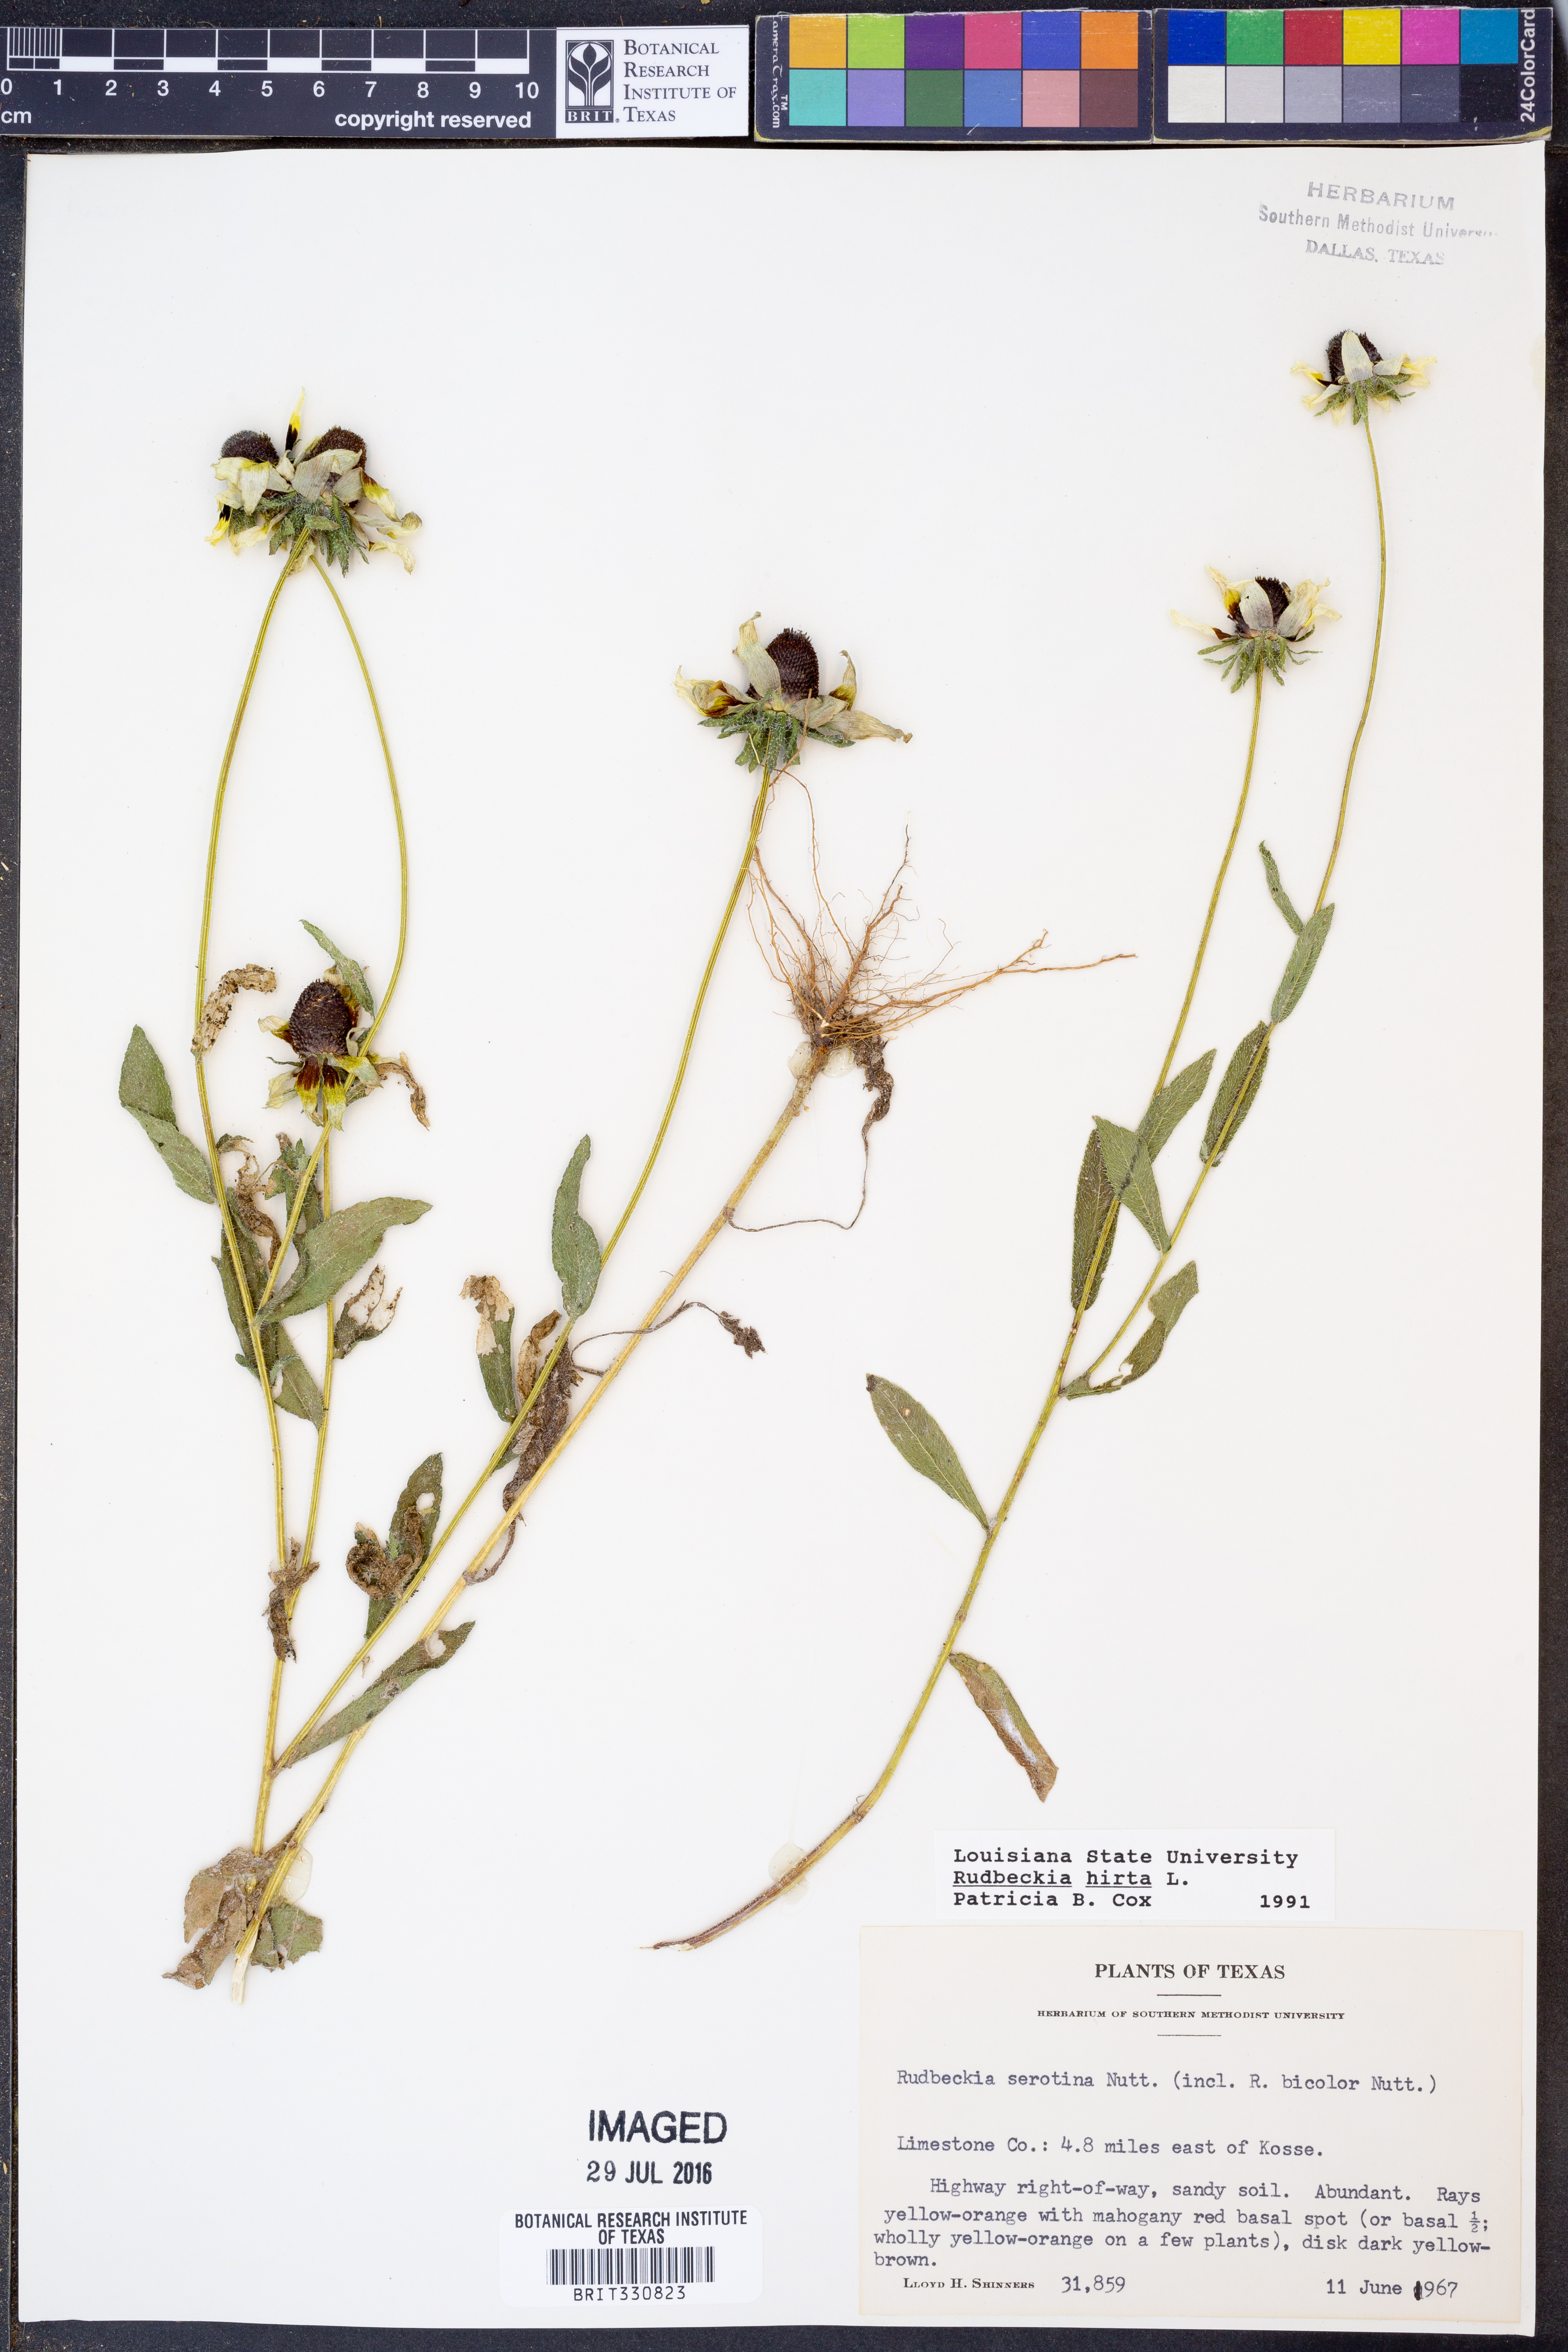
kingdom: Plantae
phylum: Tracheophyta
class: Magnoliopsida
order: Asterales
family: Asteraceae
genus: Rudbeckia
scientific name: Rudbeckia hirta
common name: Black-eyed-susan
